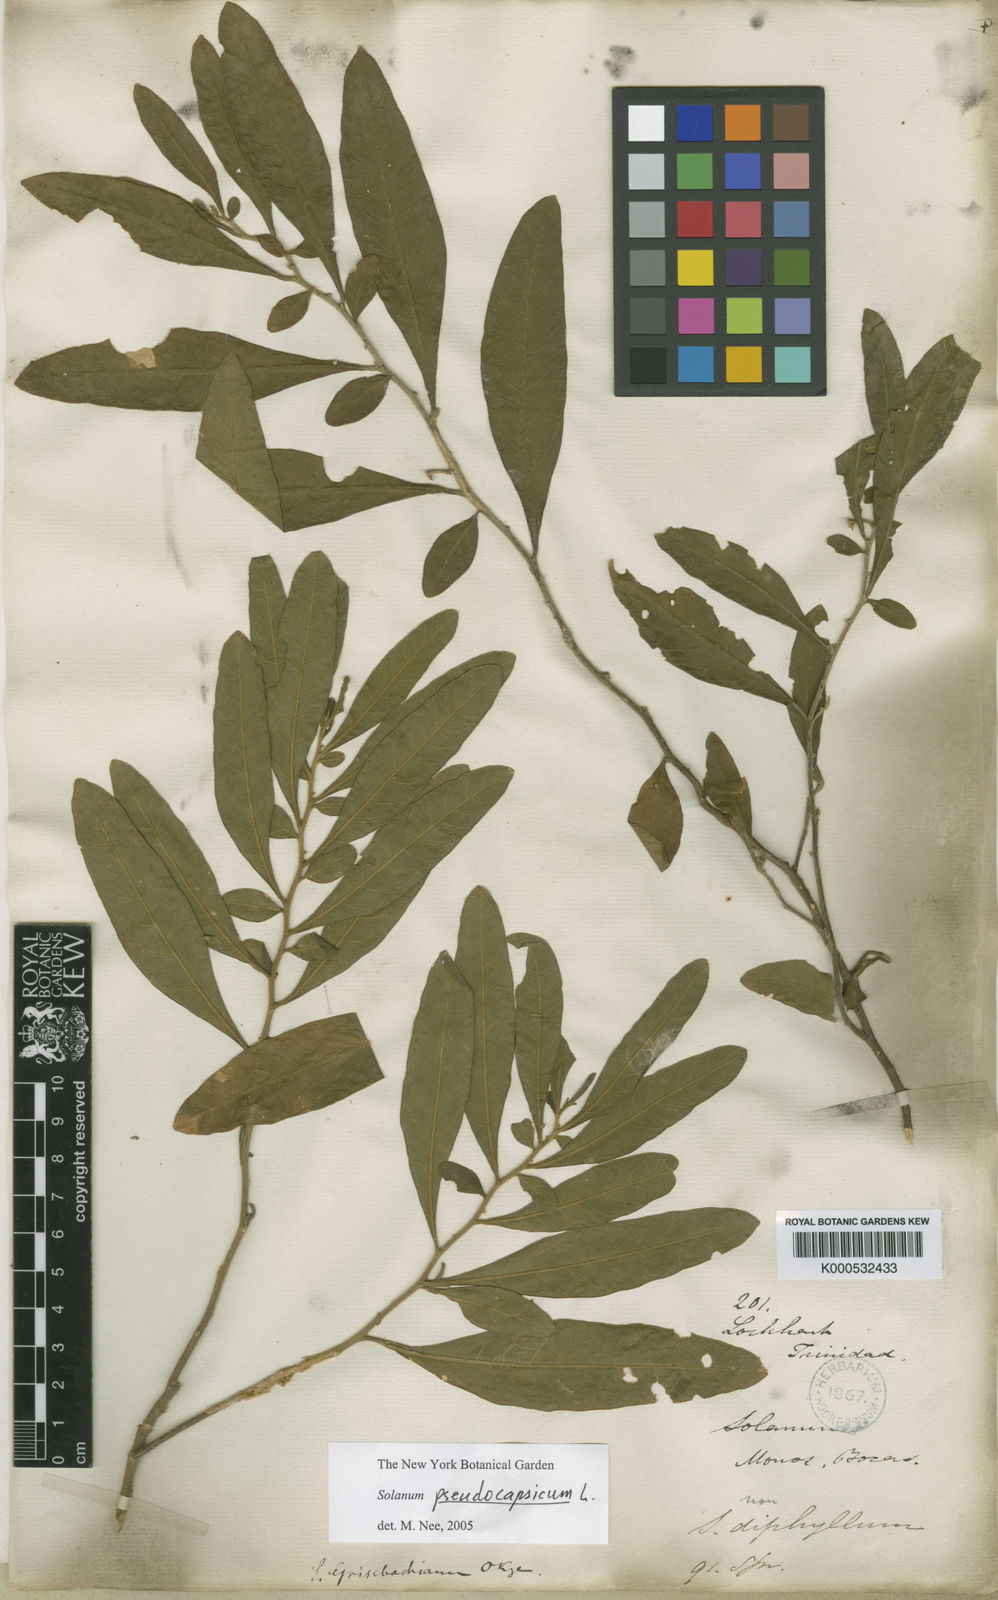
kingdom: Plantae
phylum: Tracheophyta
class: Magnoliopsida
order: Solanales
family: Solanaceae
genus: Solanum
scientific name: Solanum pseudocapsicum
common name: Jerusalem cherry
